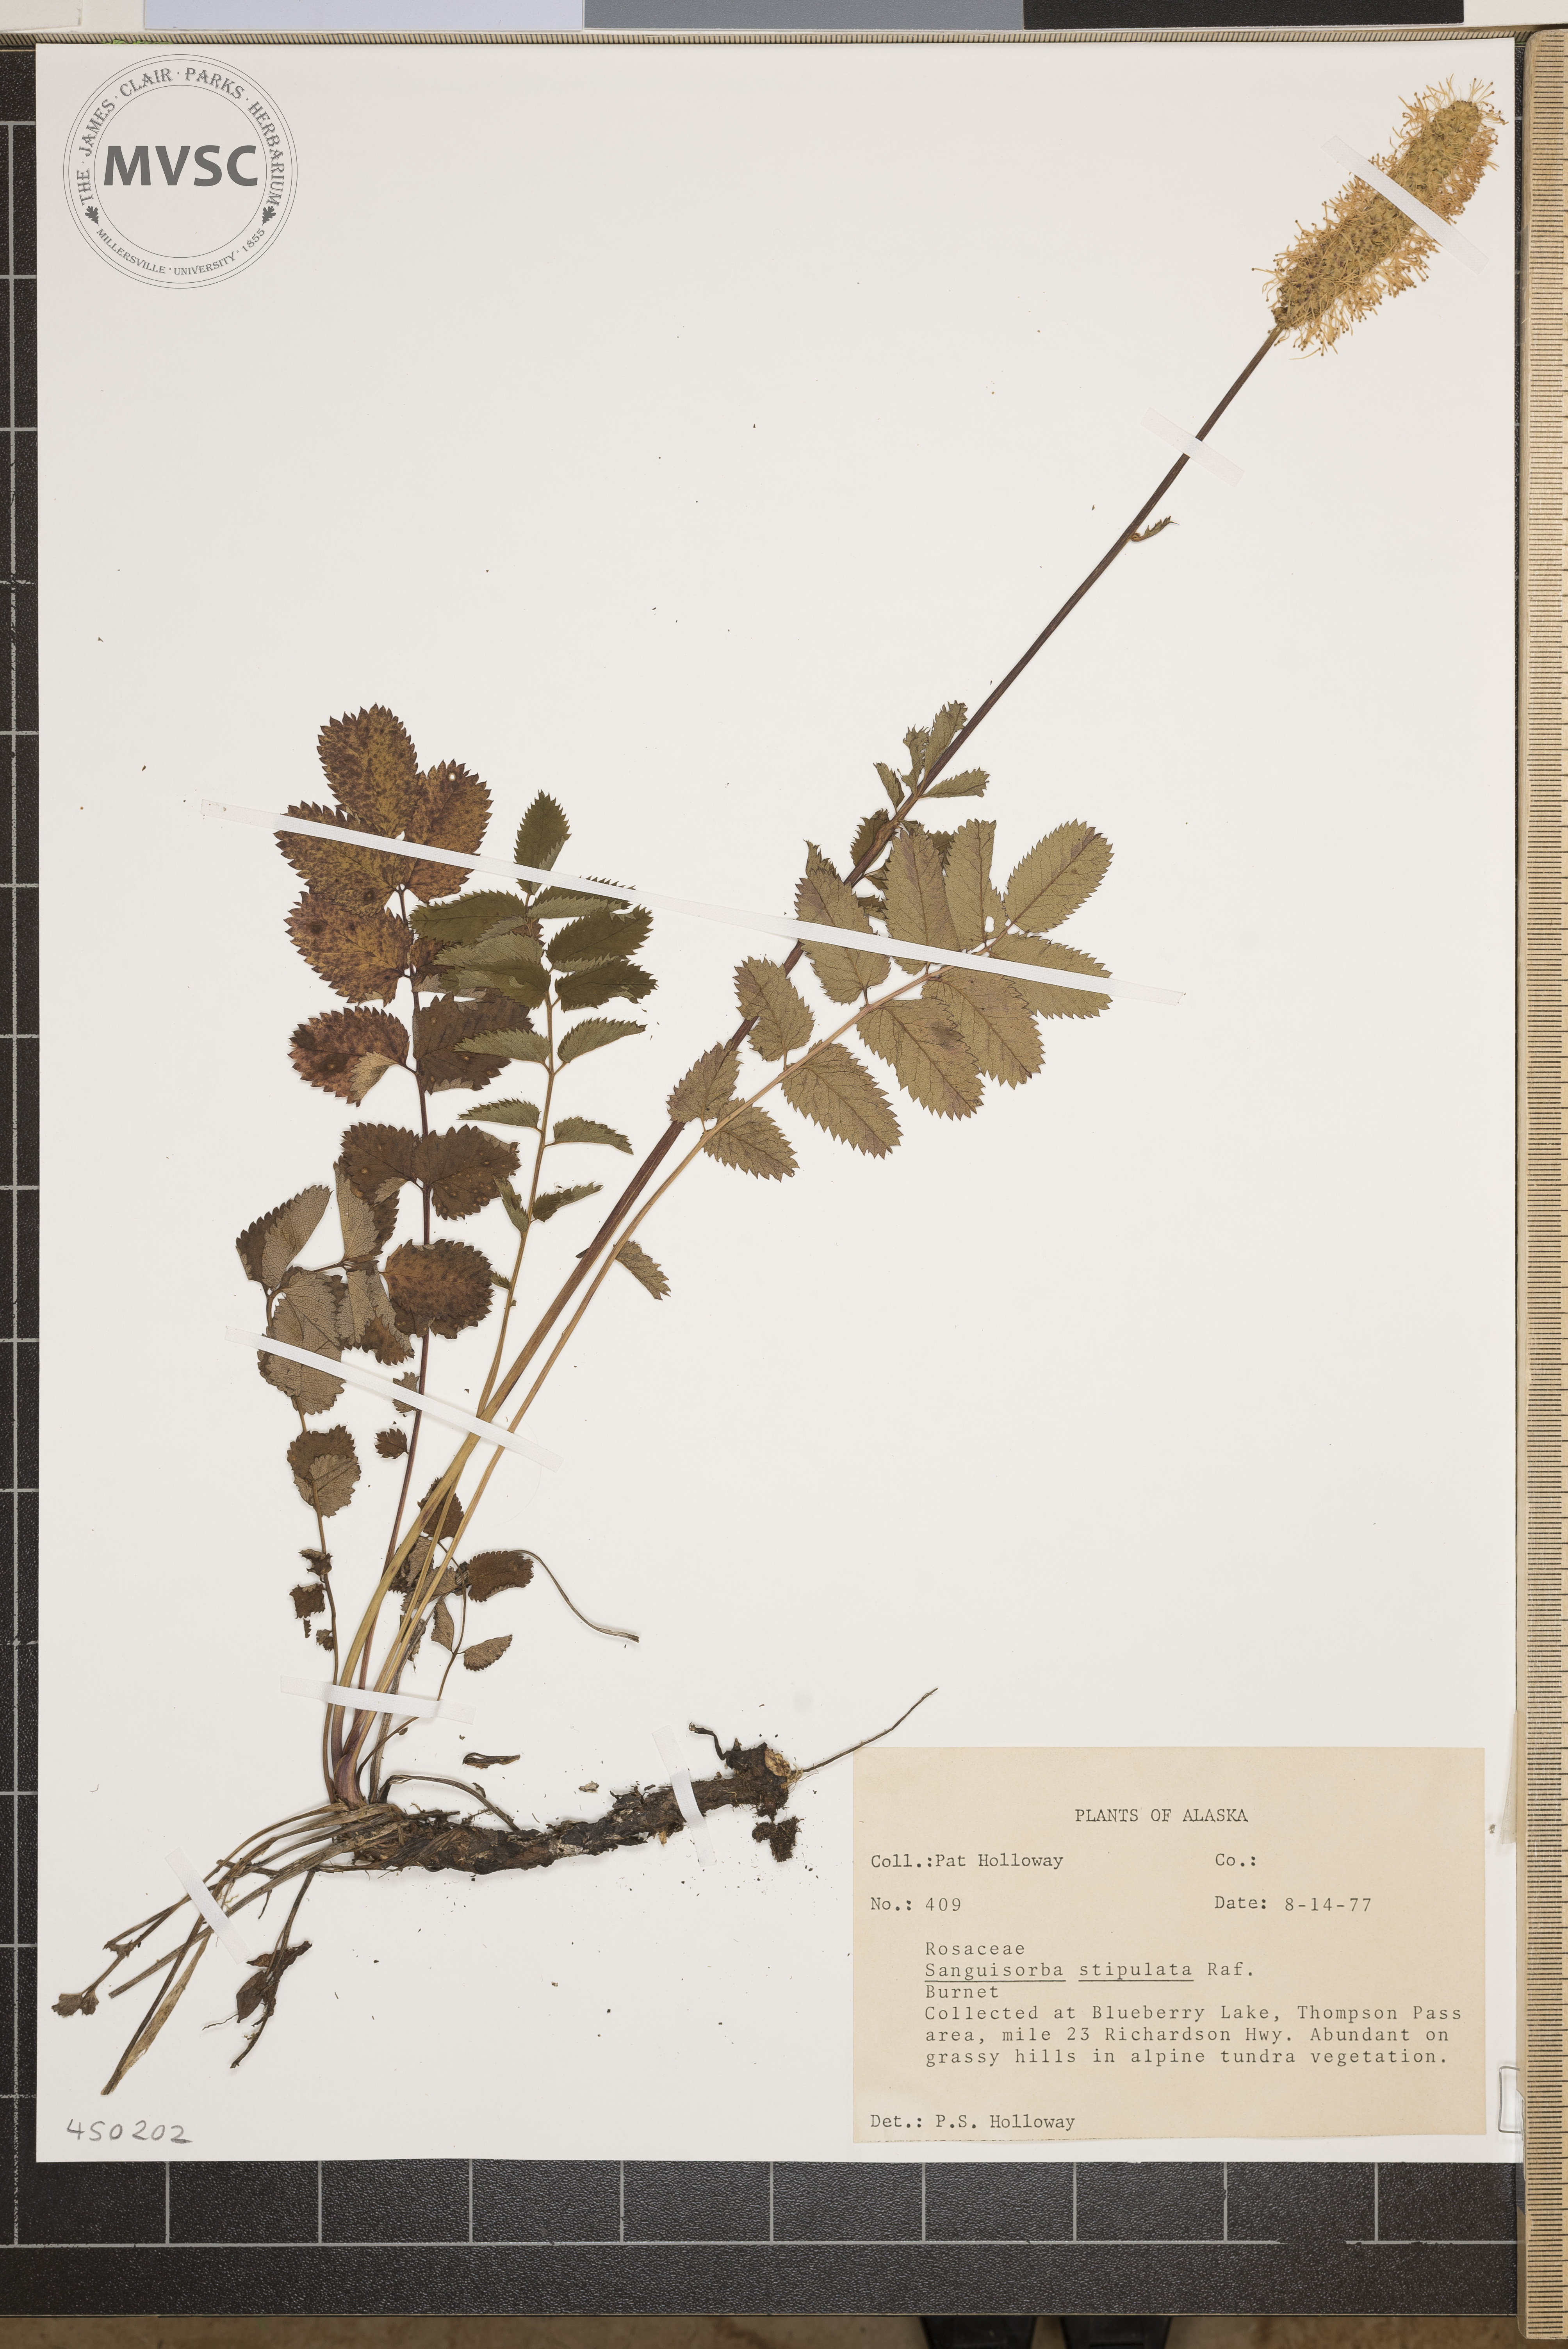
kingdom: Plantae
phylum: Tracheophyta
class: Magnoliopsida
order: Rosales
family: Rosaceae
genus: Sanguisorba
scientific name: Sanguisorba stipulata
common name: Sitka burnet
